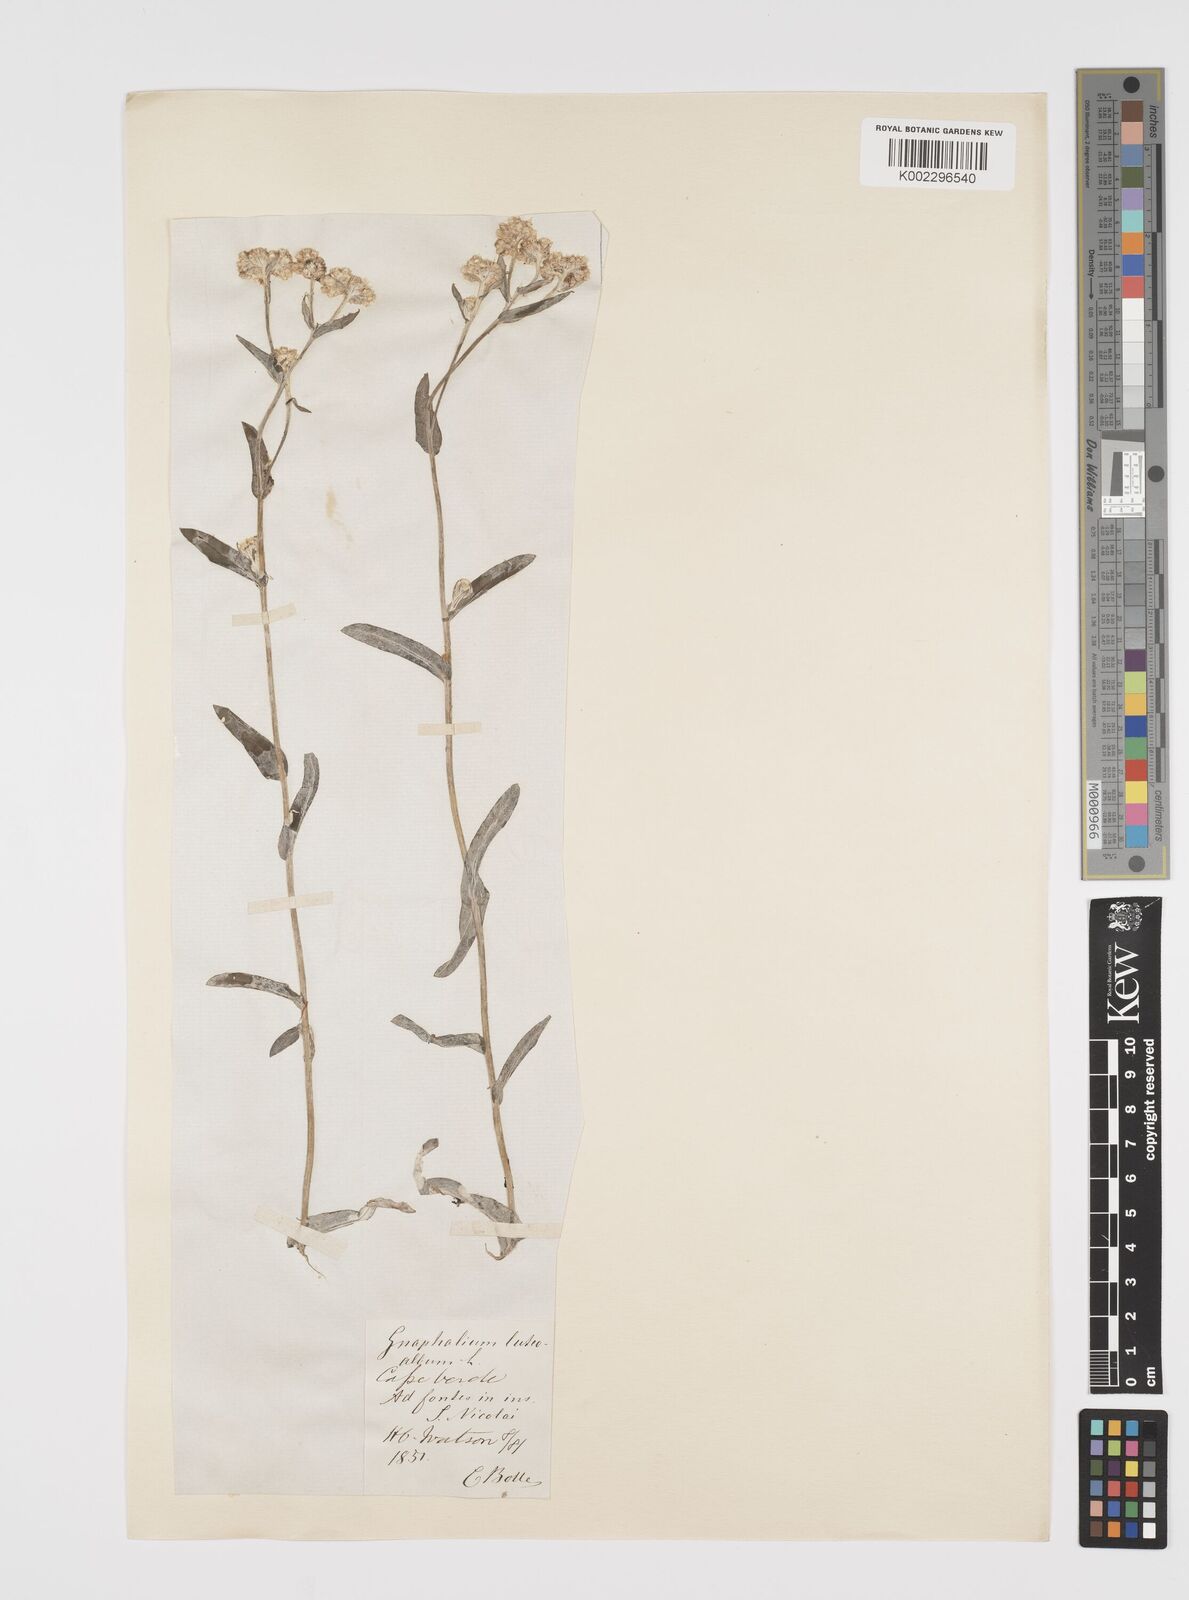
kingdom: Plantae
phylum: Tracheophyta
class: Magnoliopsida
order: Asterales
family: Asteraceae
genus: Helichrysum
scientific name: Helichrysum luteoalbum
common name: Daisy
